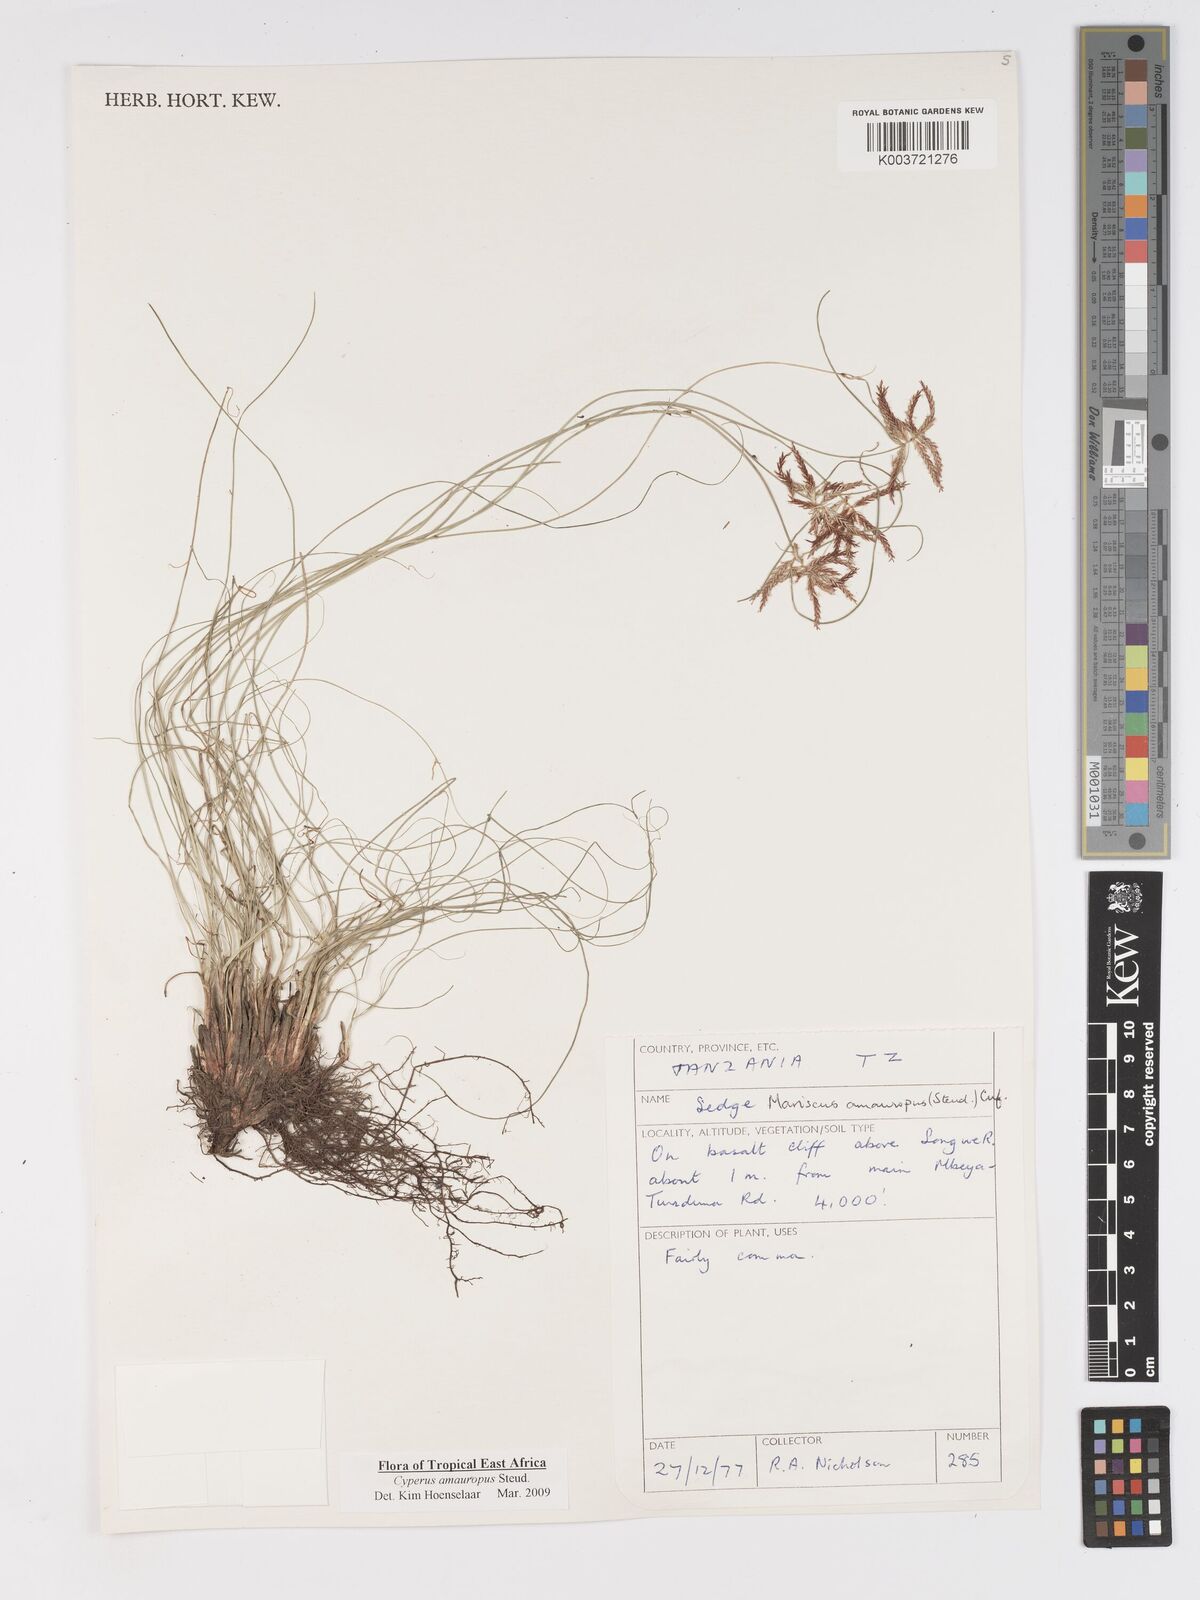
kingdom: Plantae
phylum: Tracheophyta
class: Liliopsida
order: Poales
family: Cyperaceae
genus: Cyperus
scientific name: Cyperus amauropus
